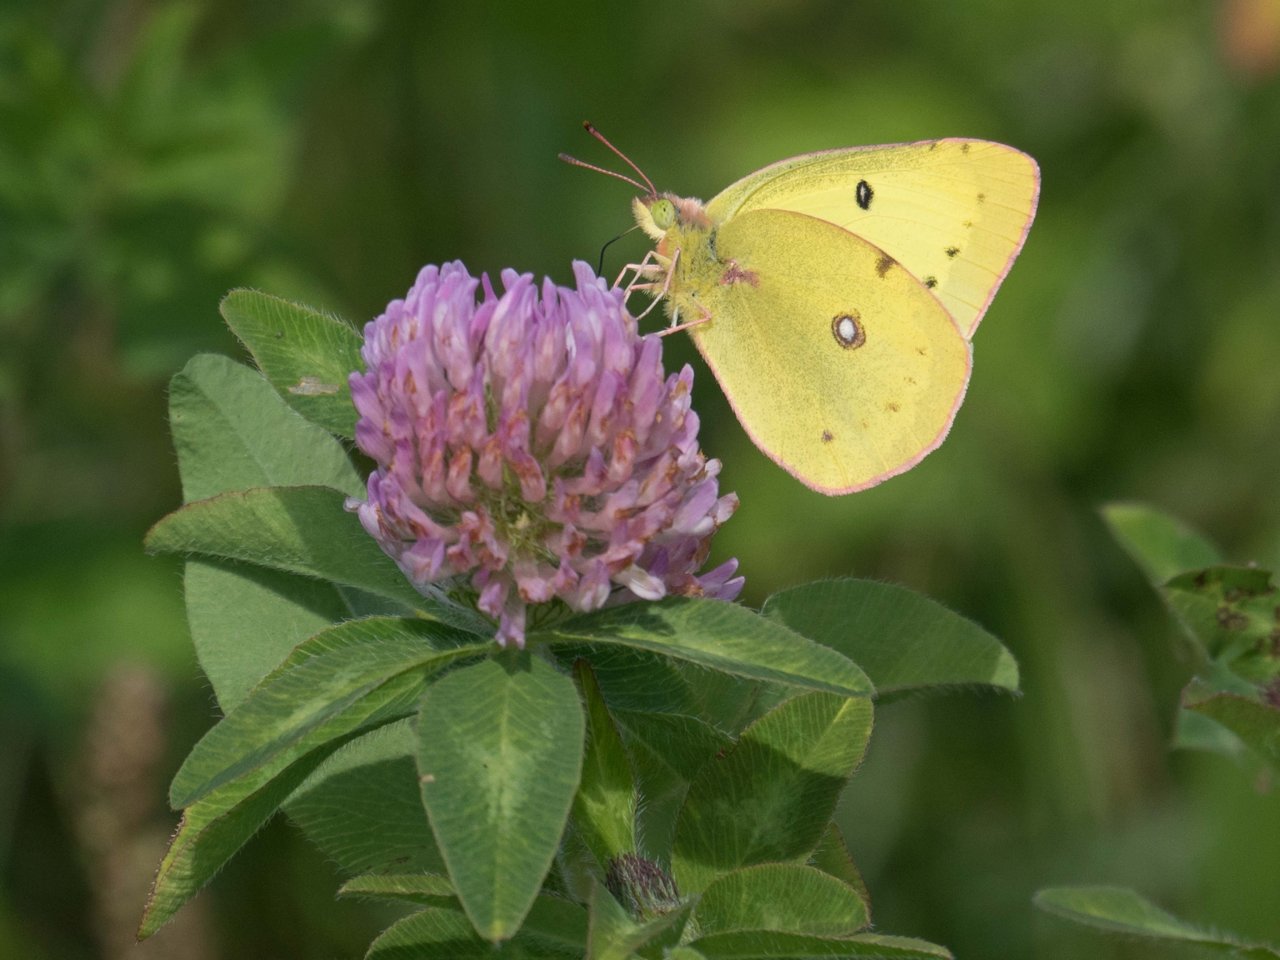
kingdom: Animalia
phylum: Arthropoda
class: Insecta
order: Lepidoptera
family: Pieridae
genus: Colias
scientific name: Colias
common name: Clouded Yellows
